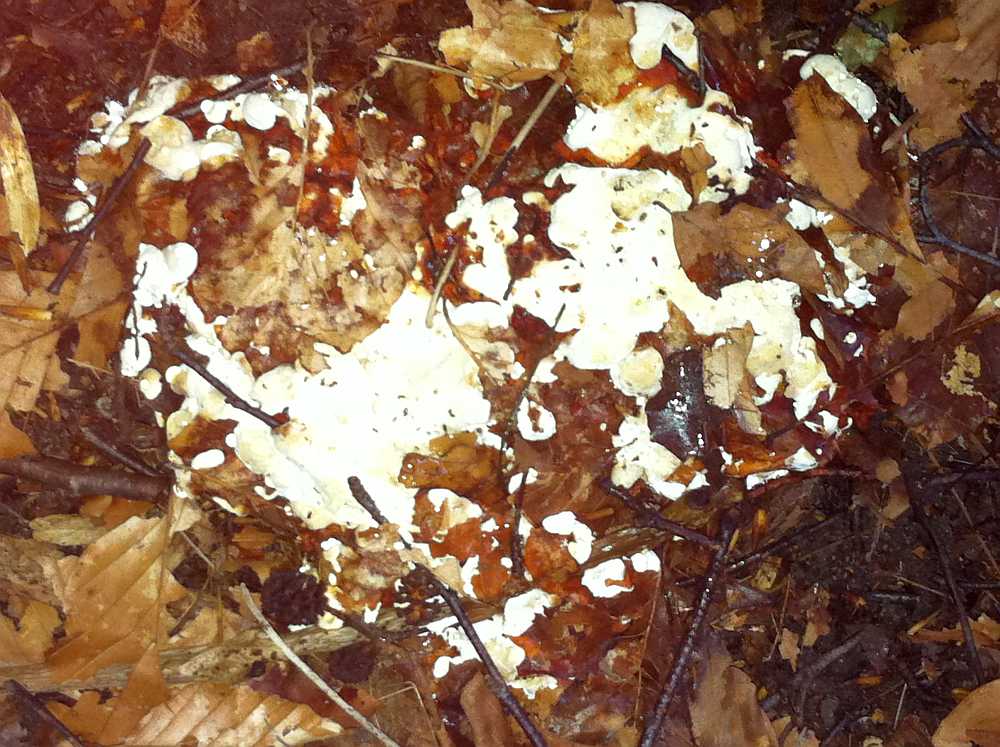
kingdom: Fungi
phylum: Basidiomycota
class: Agaricomycetes
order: Russulales
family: Bondarzewiaceae
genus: Heterobasidion
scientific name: Heterobasidion annosum
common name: almindelig rodfordærver
